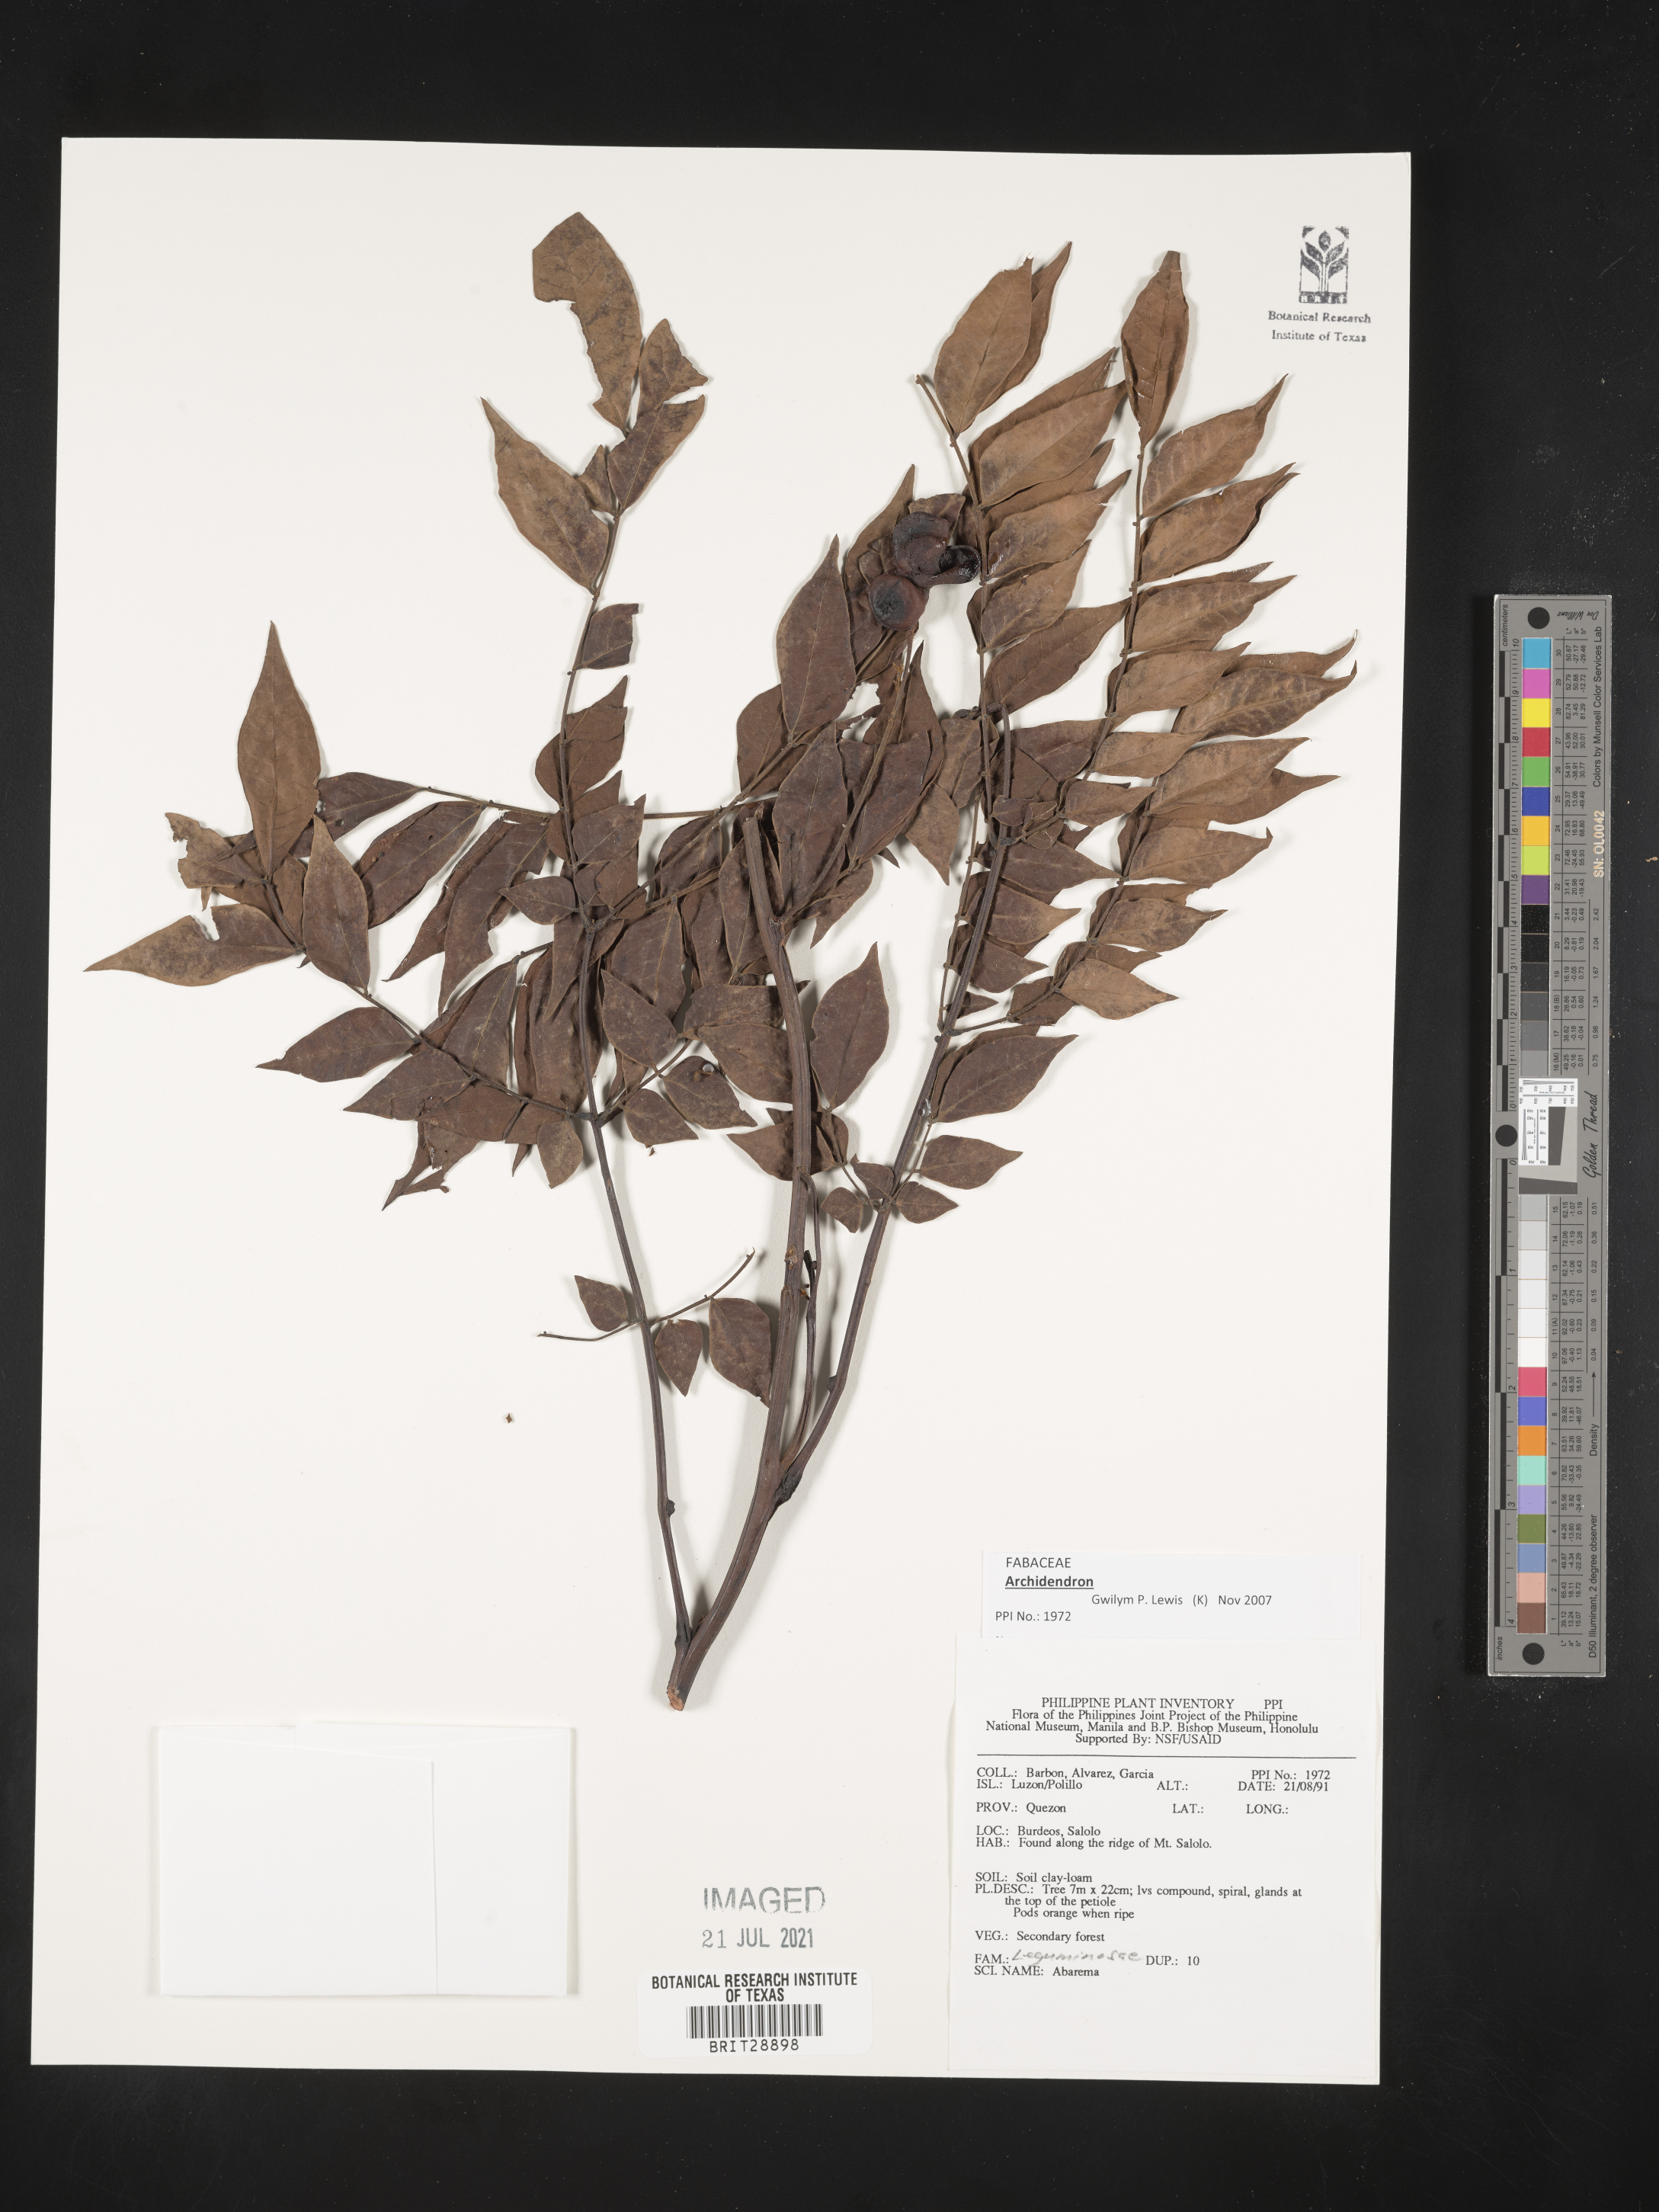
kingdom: Plantae
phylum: Tracheophyta
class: Magnoliopsida
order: Fabales
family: Fabaceae
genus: Archidendron
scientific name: Archidendron
